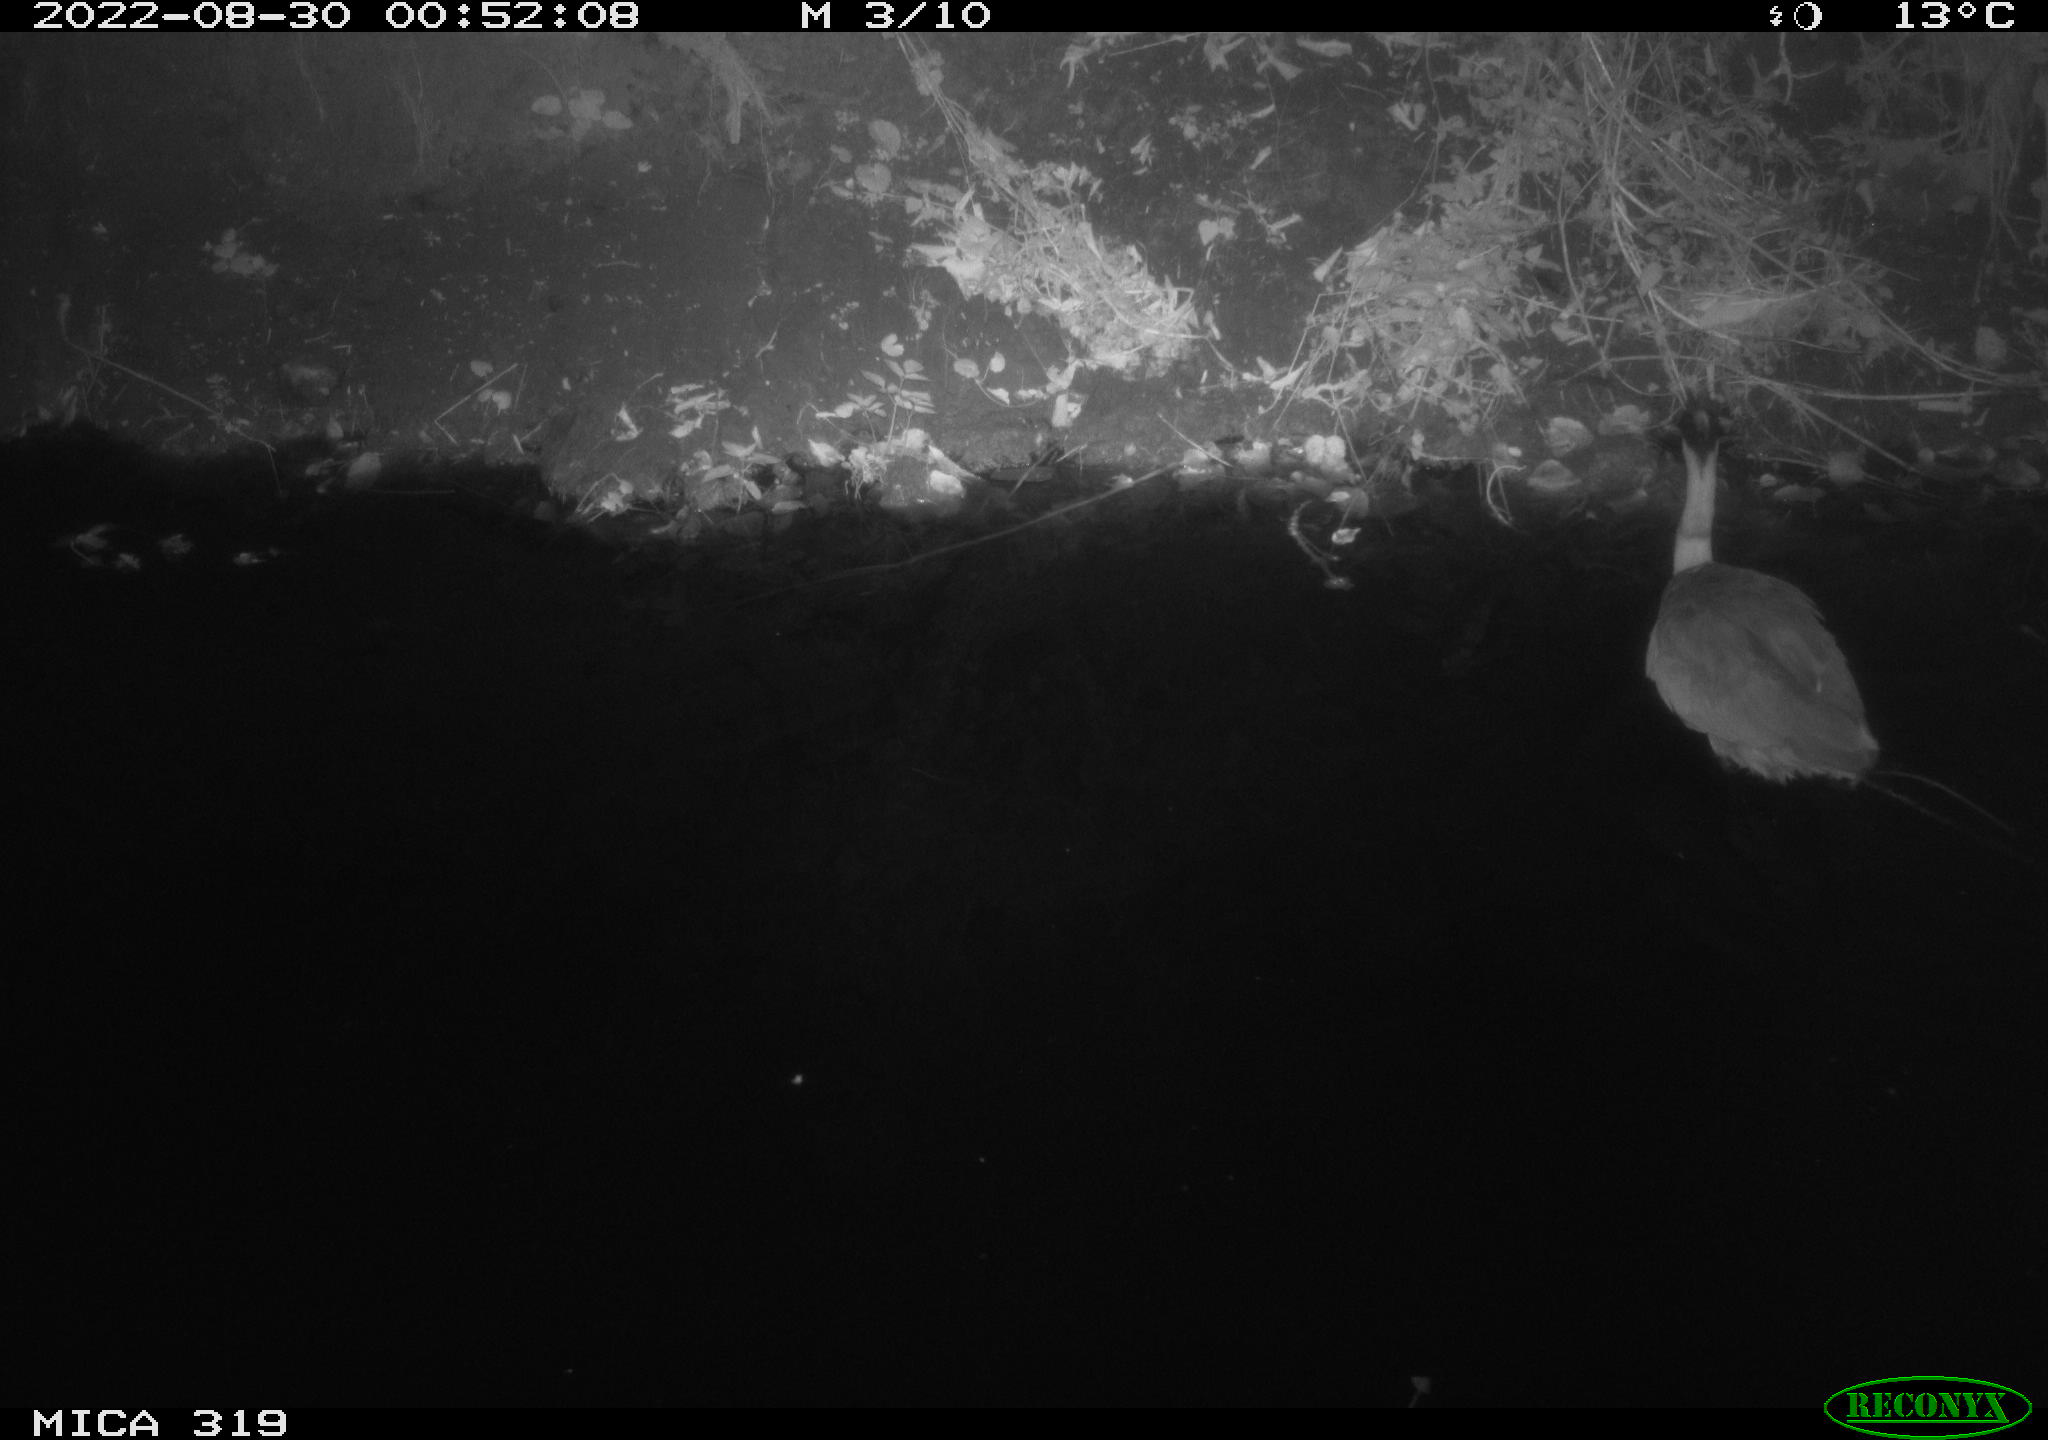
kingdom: Animalia
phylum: Chordata
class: Aves
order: Pelecaniformes
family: Ardeidae
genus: Ardea
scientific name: Ardea cinerea
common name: Grey heron
